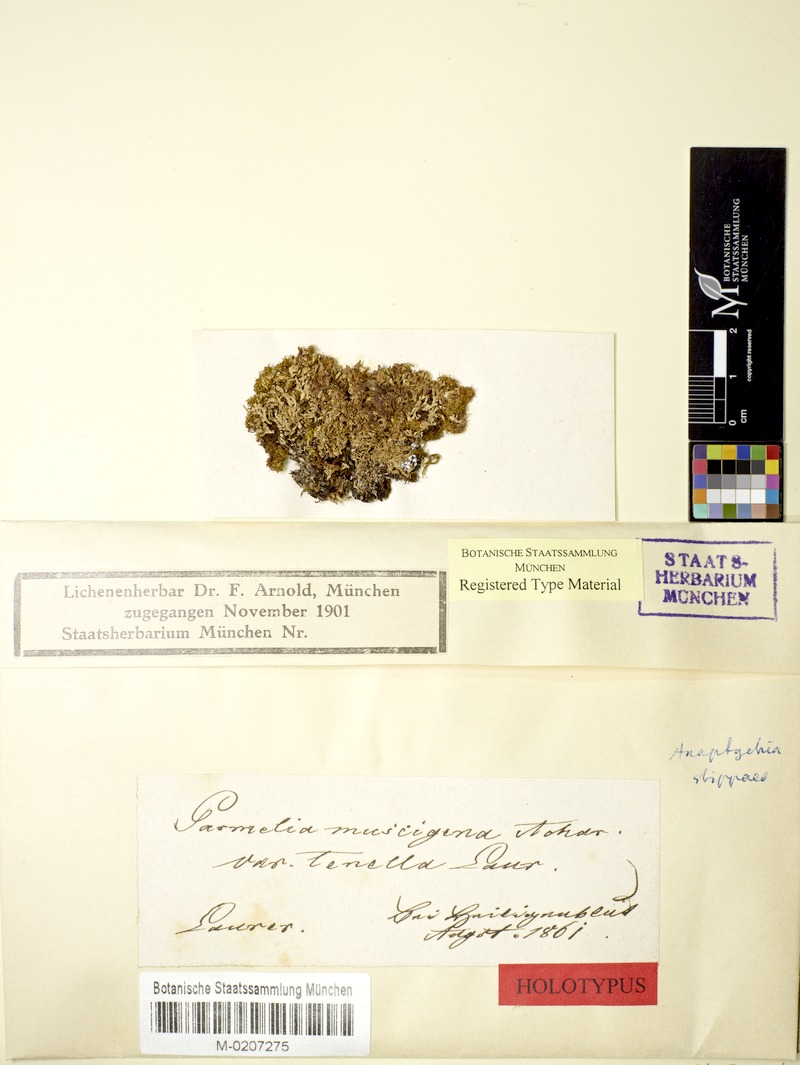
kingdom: Fungi
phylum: Ascomycota
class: Lecanoromycetes
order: Caliciales
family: Physciaceae
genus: Kurokawia
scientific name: Kurokawia bryorum
